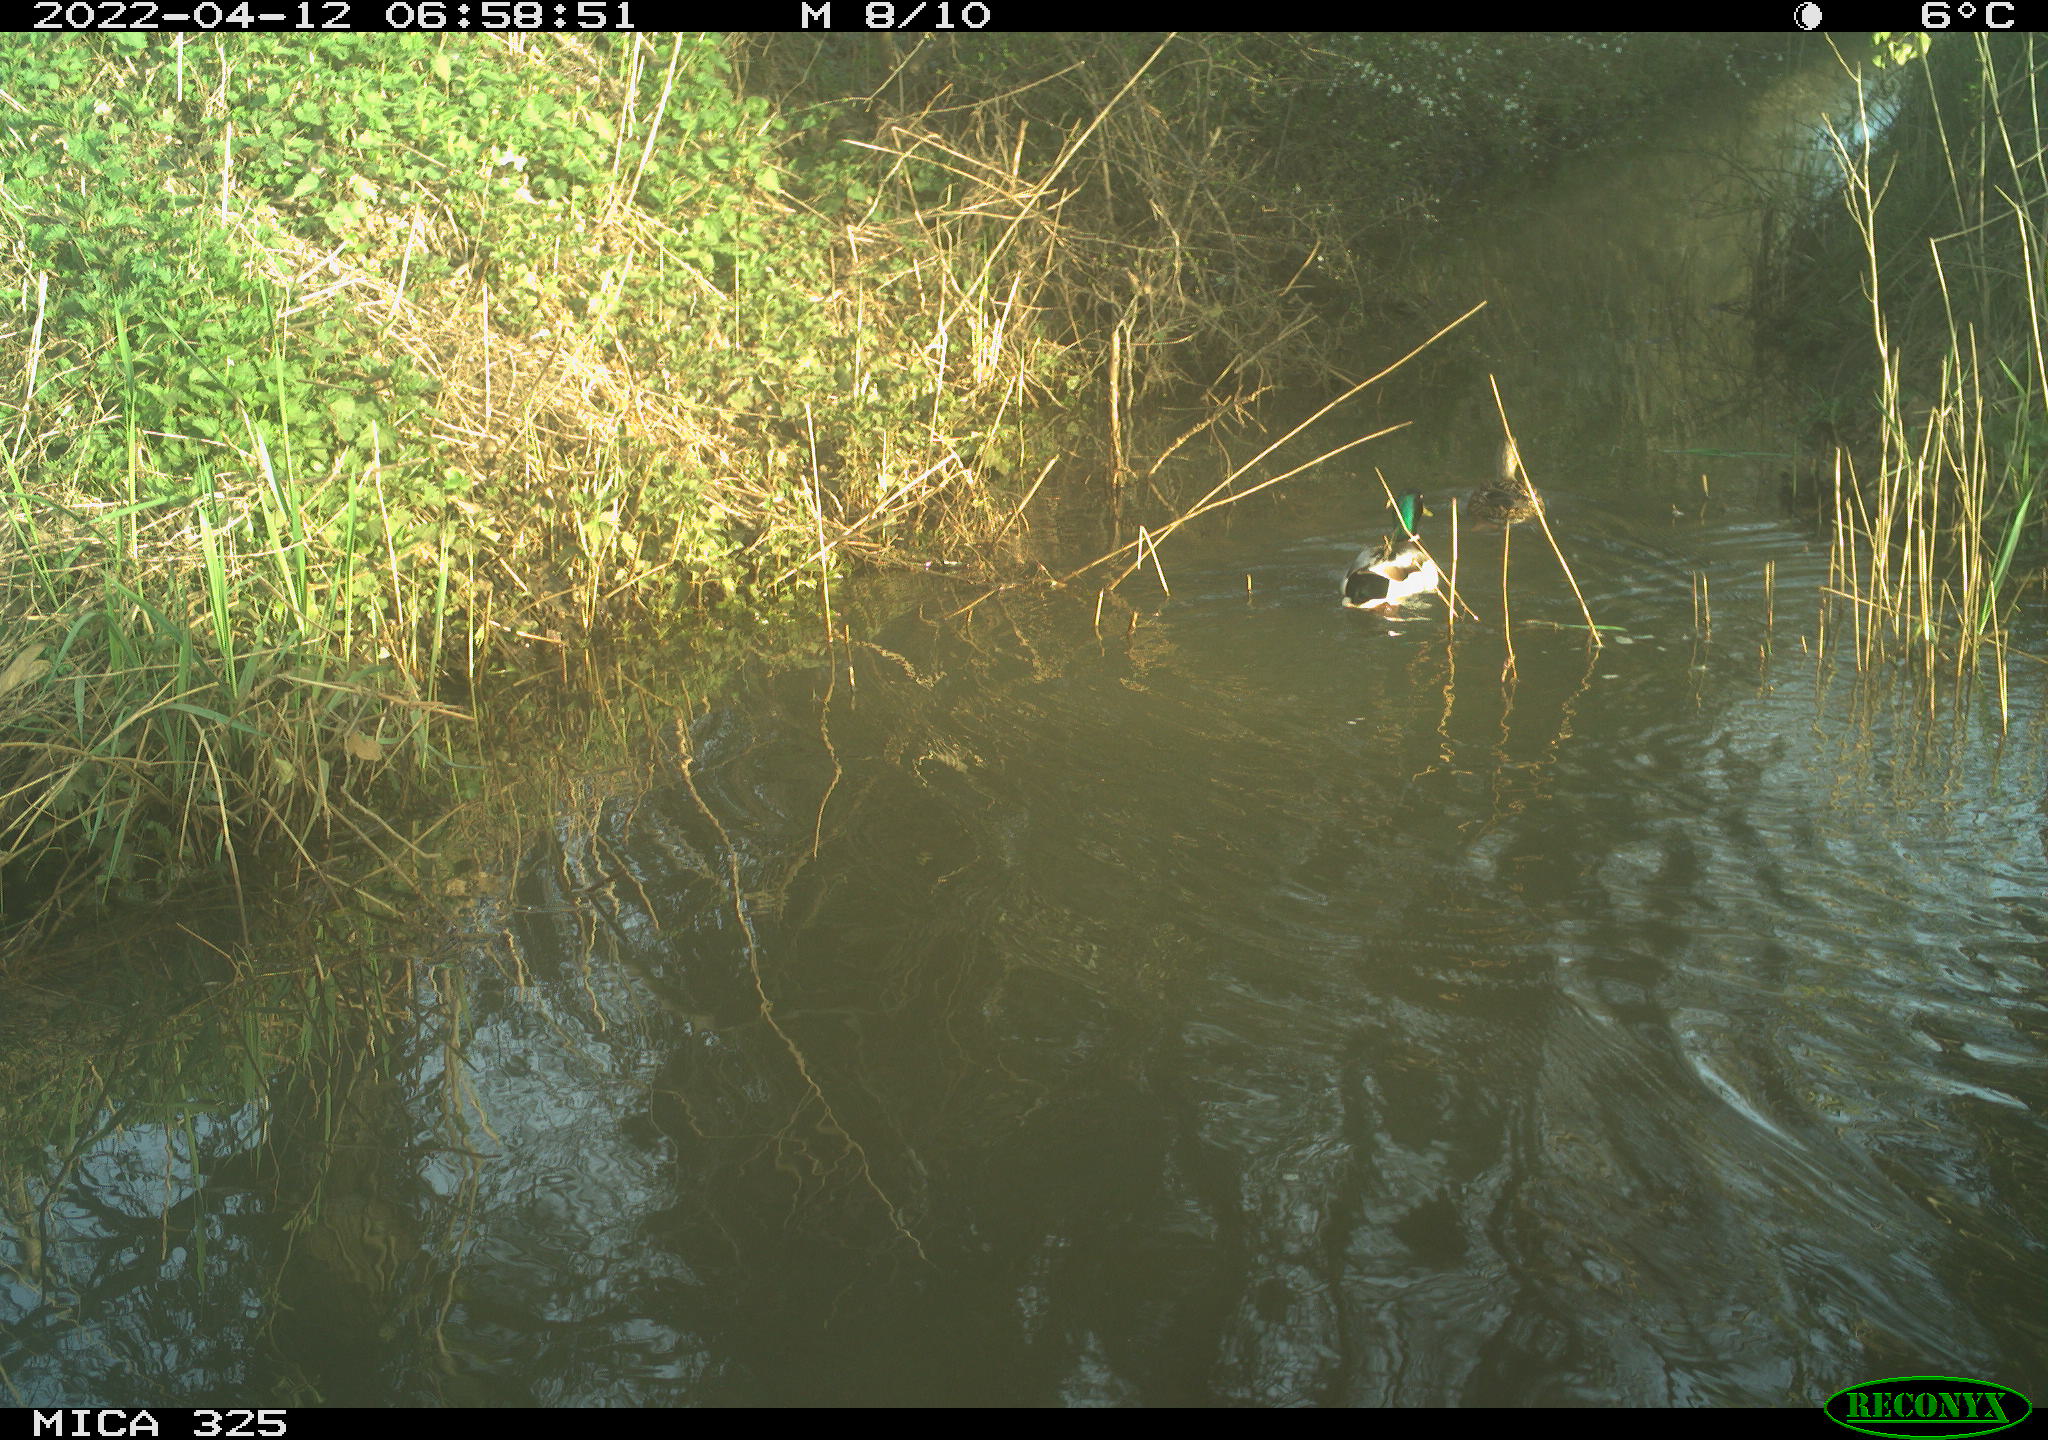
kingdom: Animalia
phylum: Chordata
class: Aves
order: Anseriformes
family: Anatidae
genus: Anas
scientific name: Anas platyrhynchos
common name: Mallard
